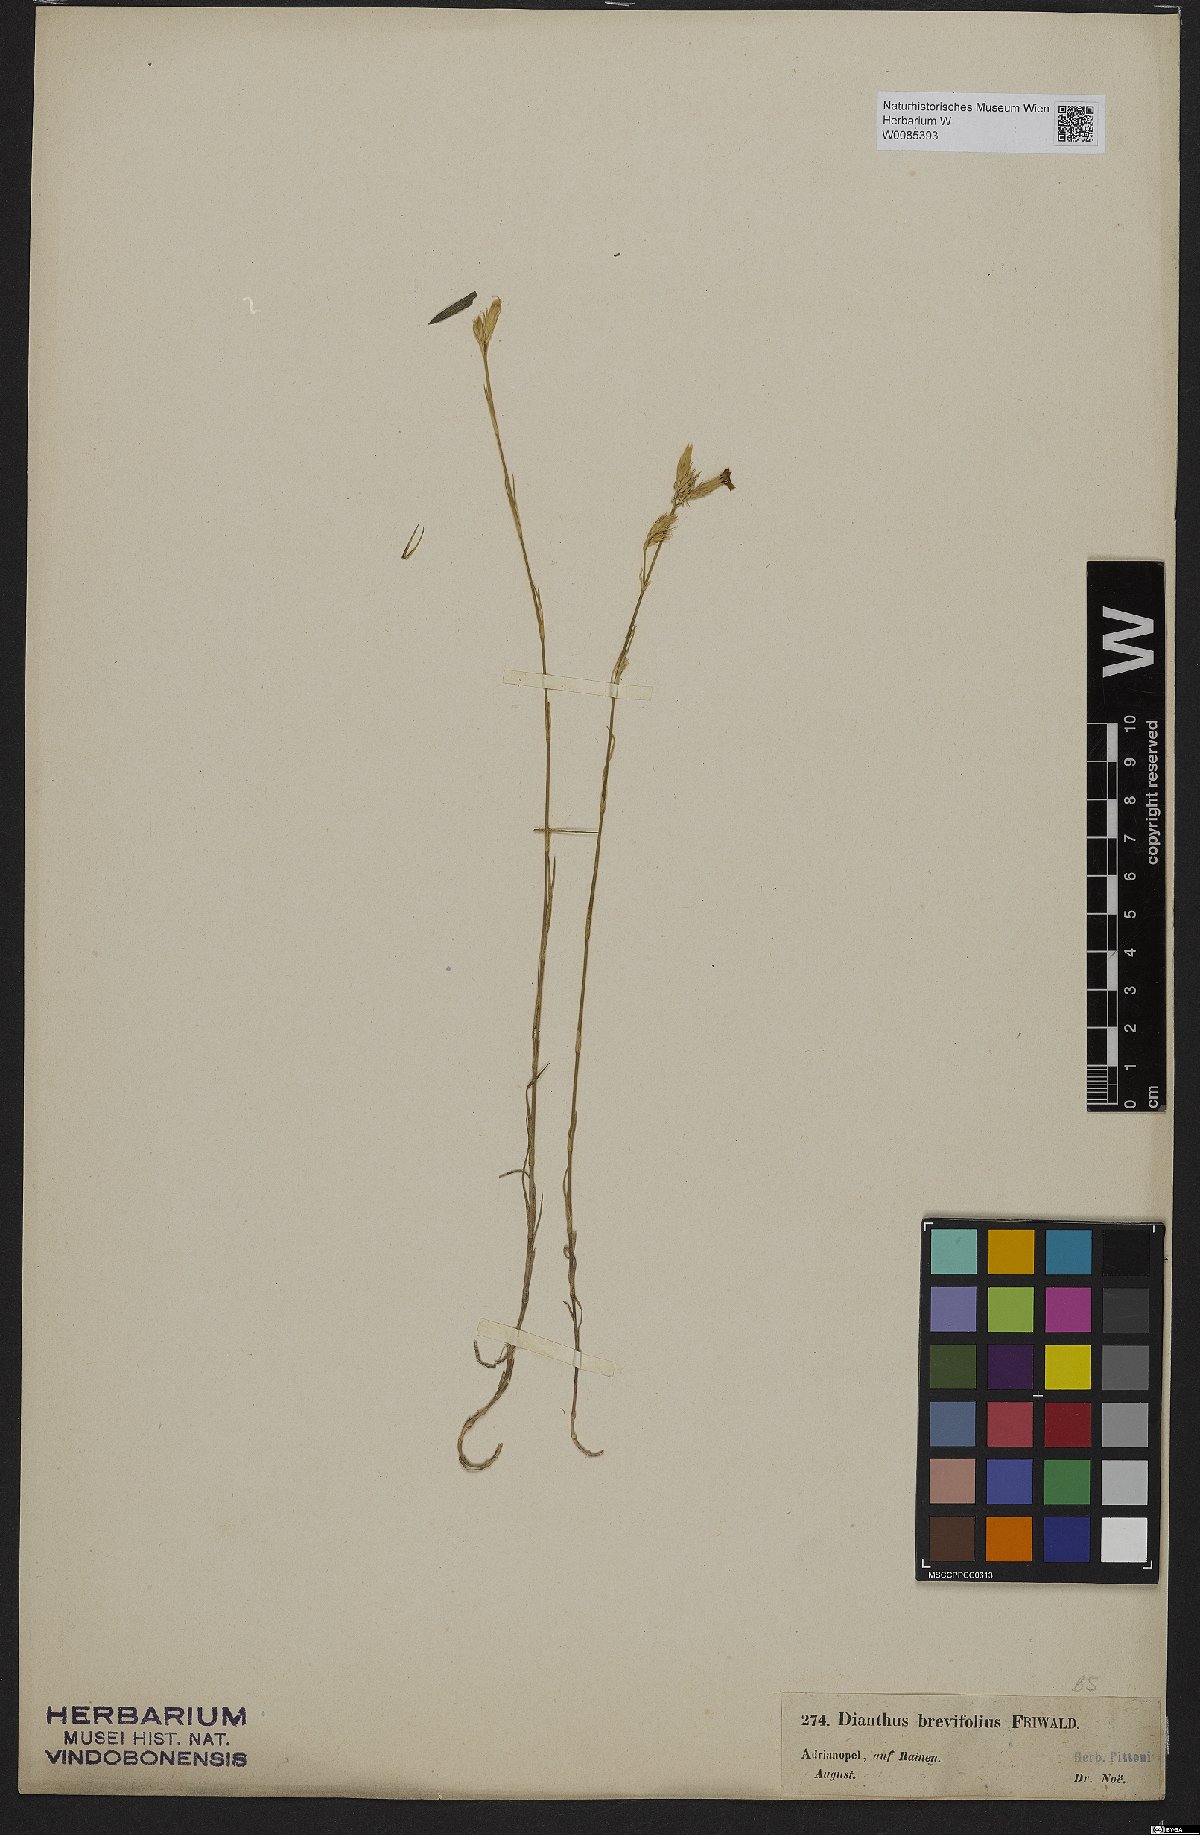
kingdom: Plantae
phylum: Tracheophyta
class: Magnoliopsida
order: Caryophyllales
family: Caryophyllaceae
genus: Dianthus
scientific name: Dianthus pinifolius
